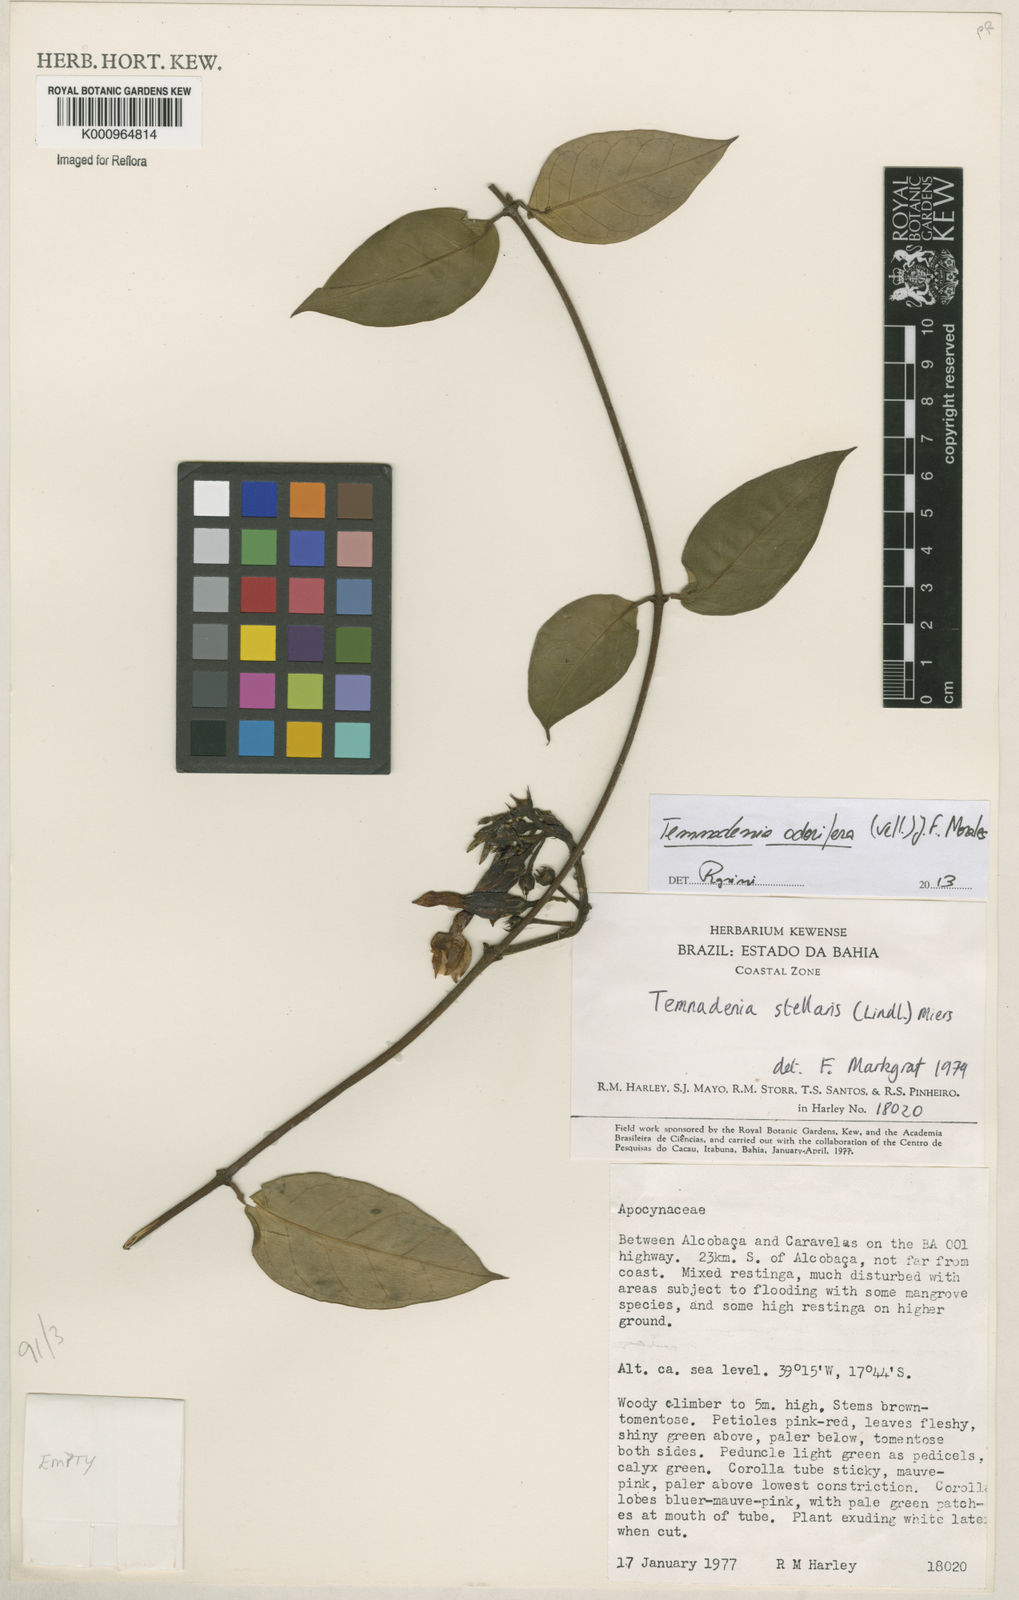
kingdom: Plantae
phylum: Tracheophyta
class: Magnoliopsida
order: Gentianales
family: Apocynaceae
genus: Temnadenia
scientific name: Temnadenia odorifera
